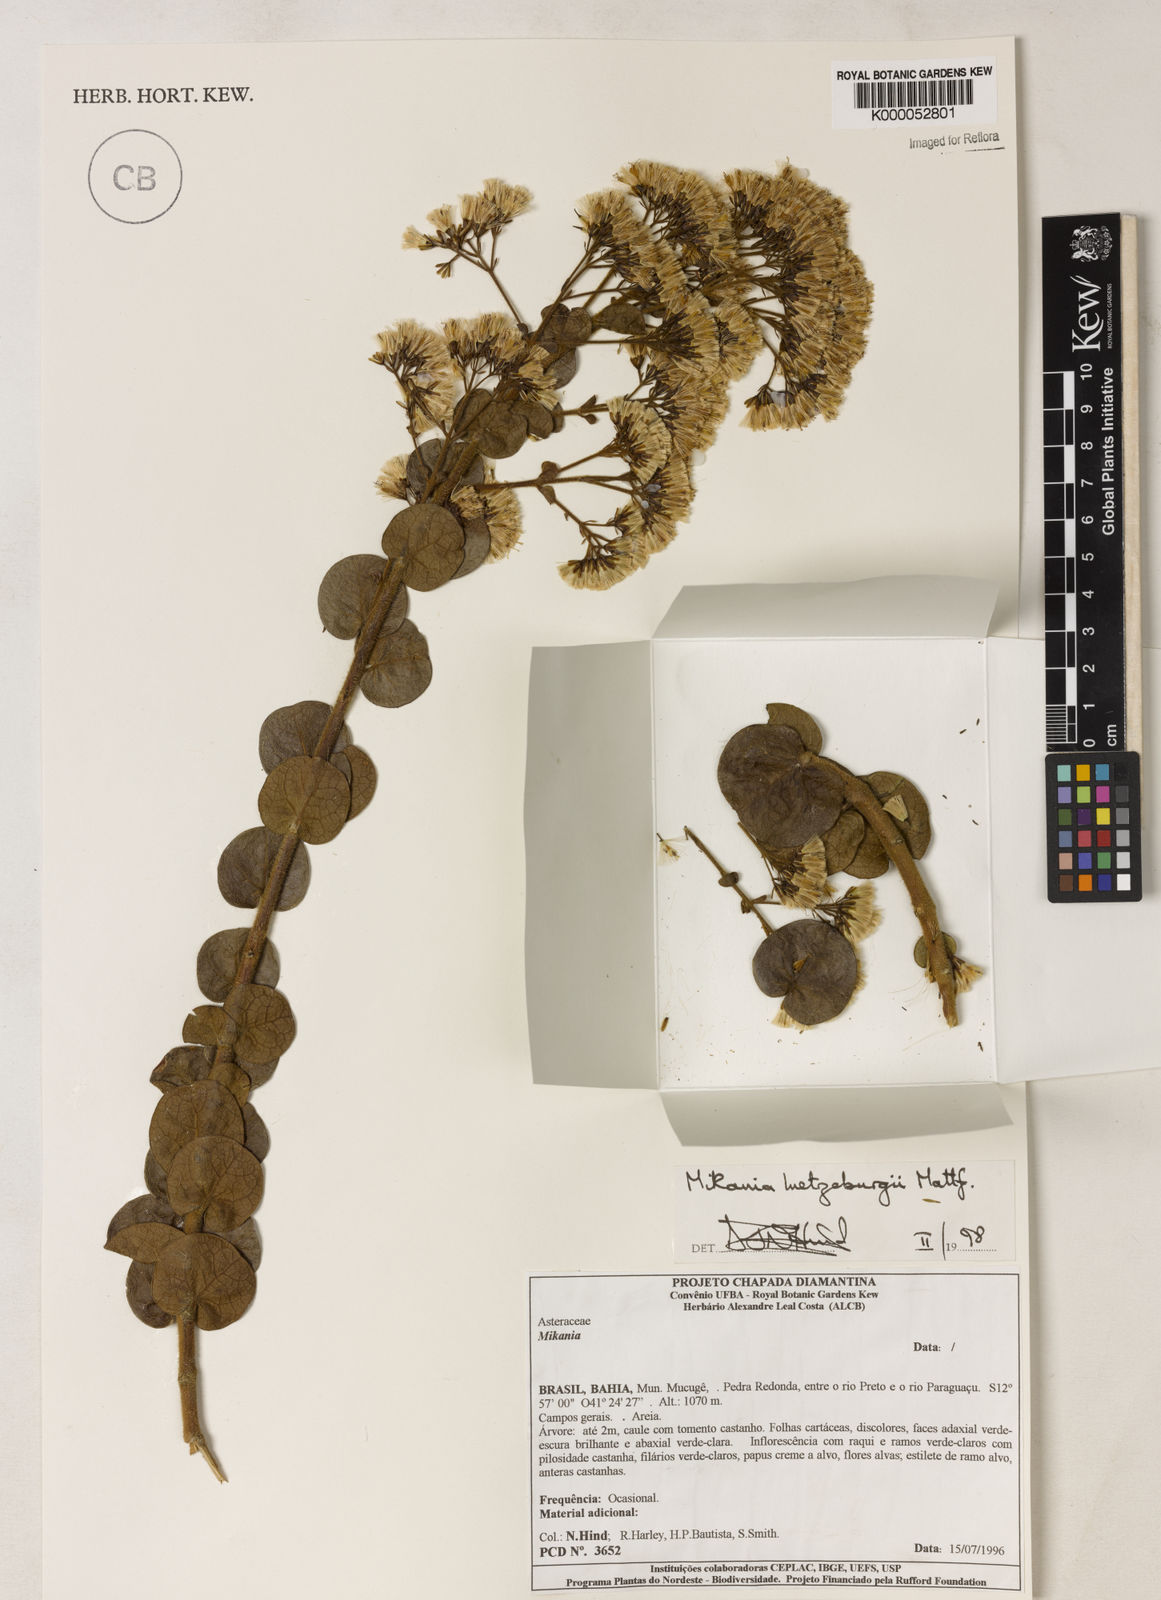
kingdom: Plantae
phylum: Tracheophyta
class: Magnoliopsida
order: Asterales
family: Asteraceae
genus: Mikania
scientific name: Mikania luetzelburgii
